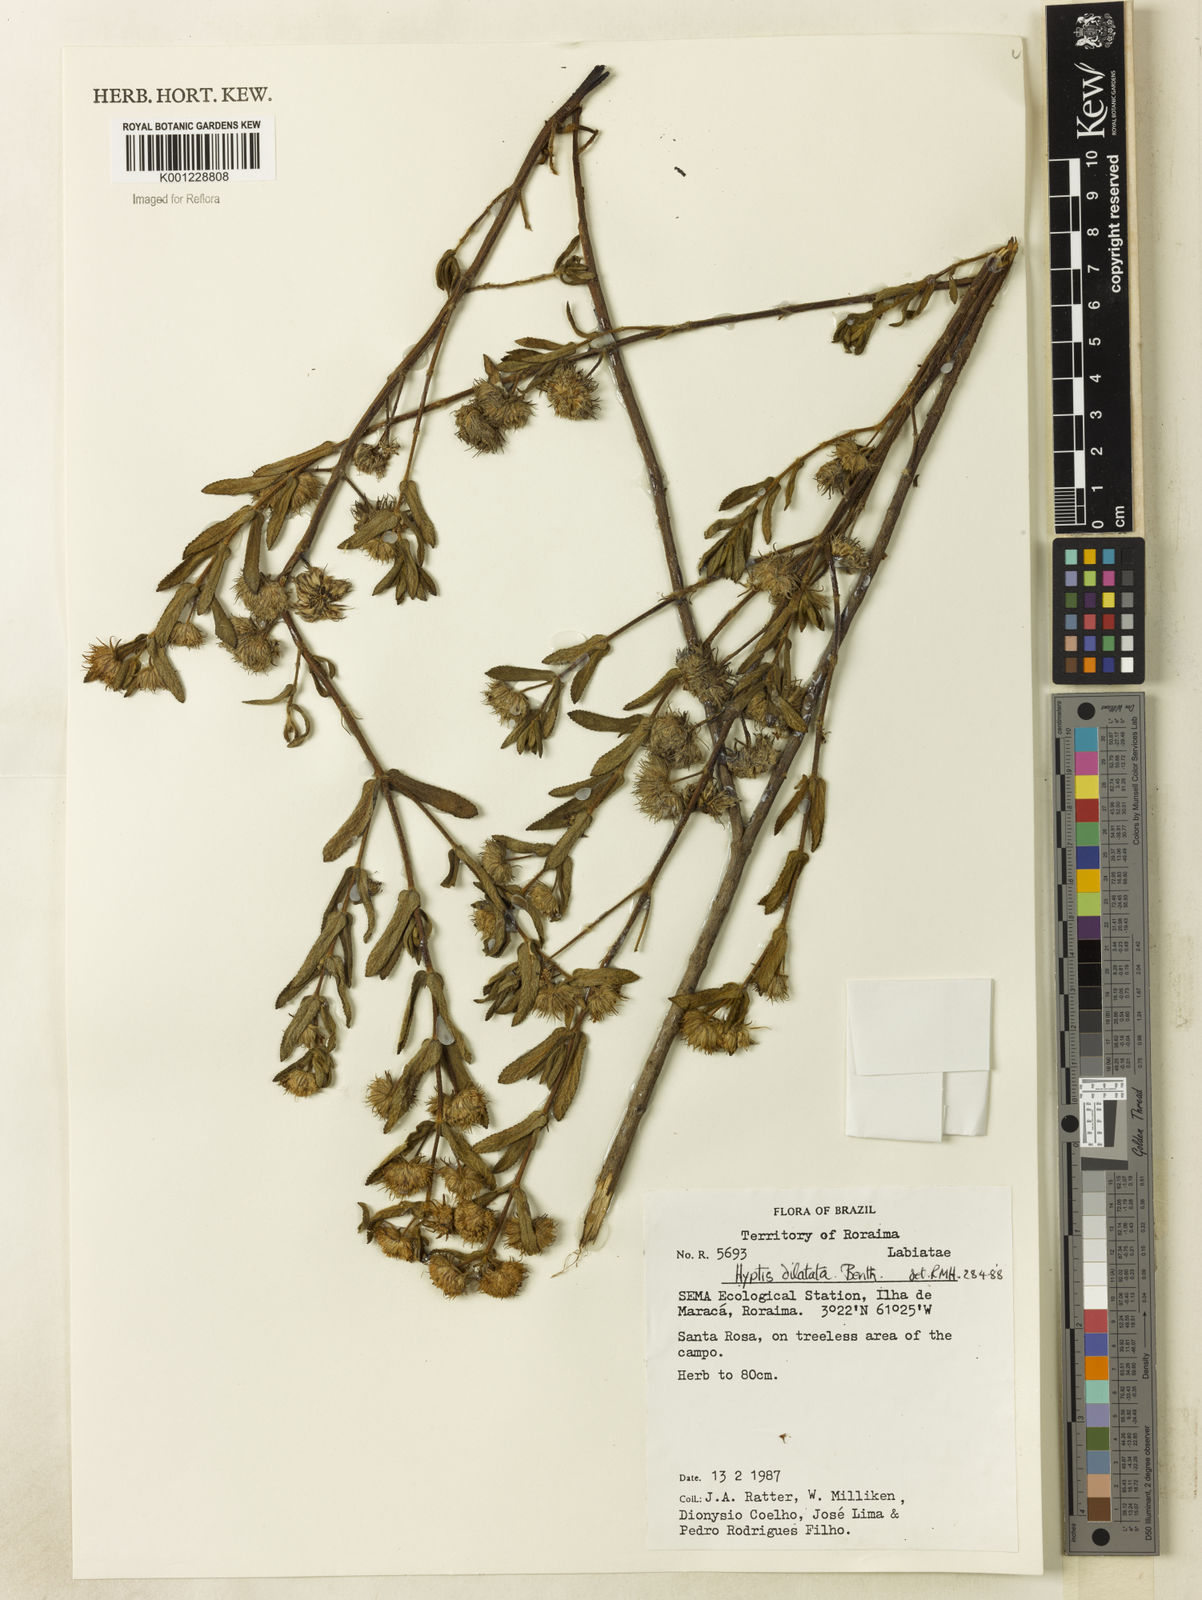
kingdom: Plantae
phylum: Tracheophyta
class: Magnoliopsida
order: Lamiales
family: Lamiaceae
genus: Hyptis
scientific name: Hyptis dilatata
